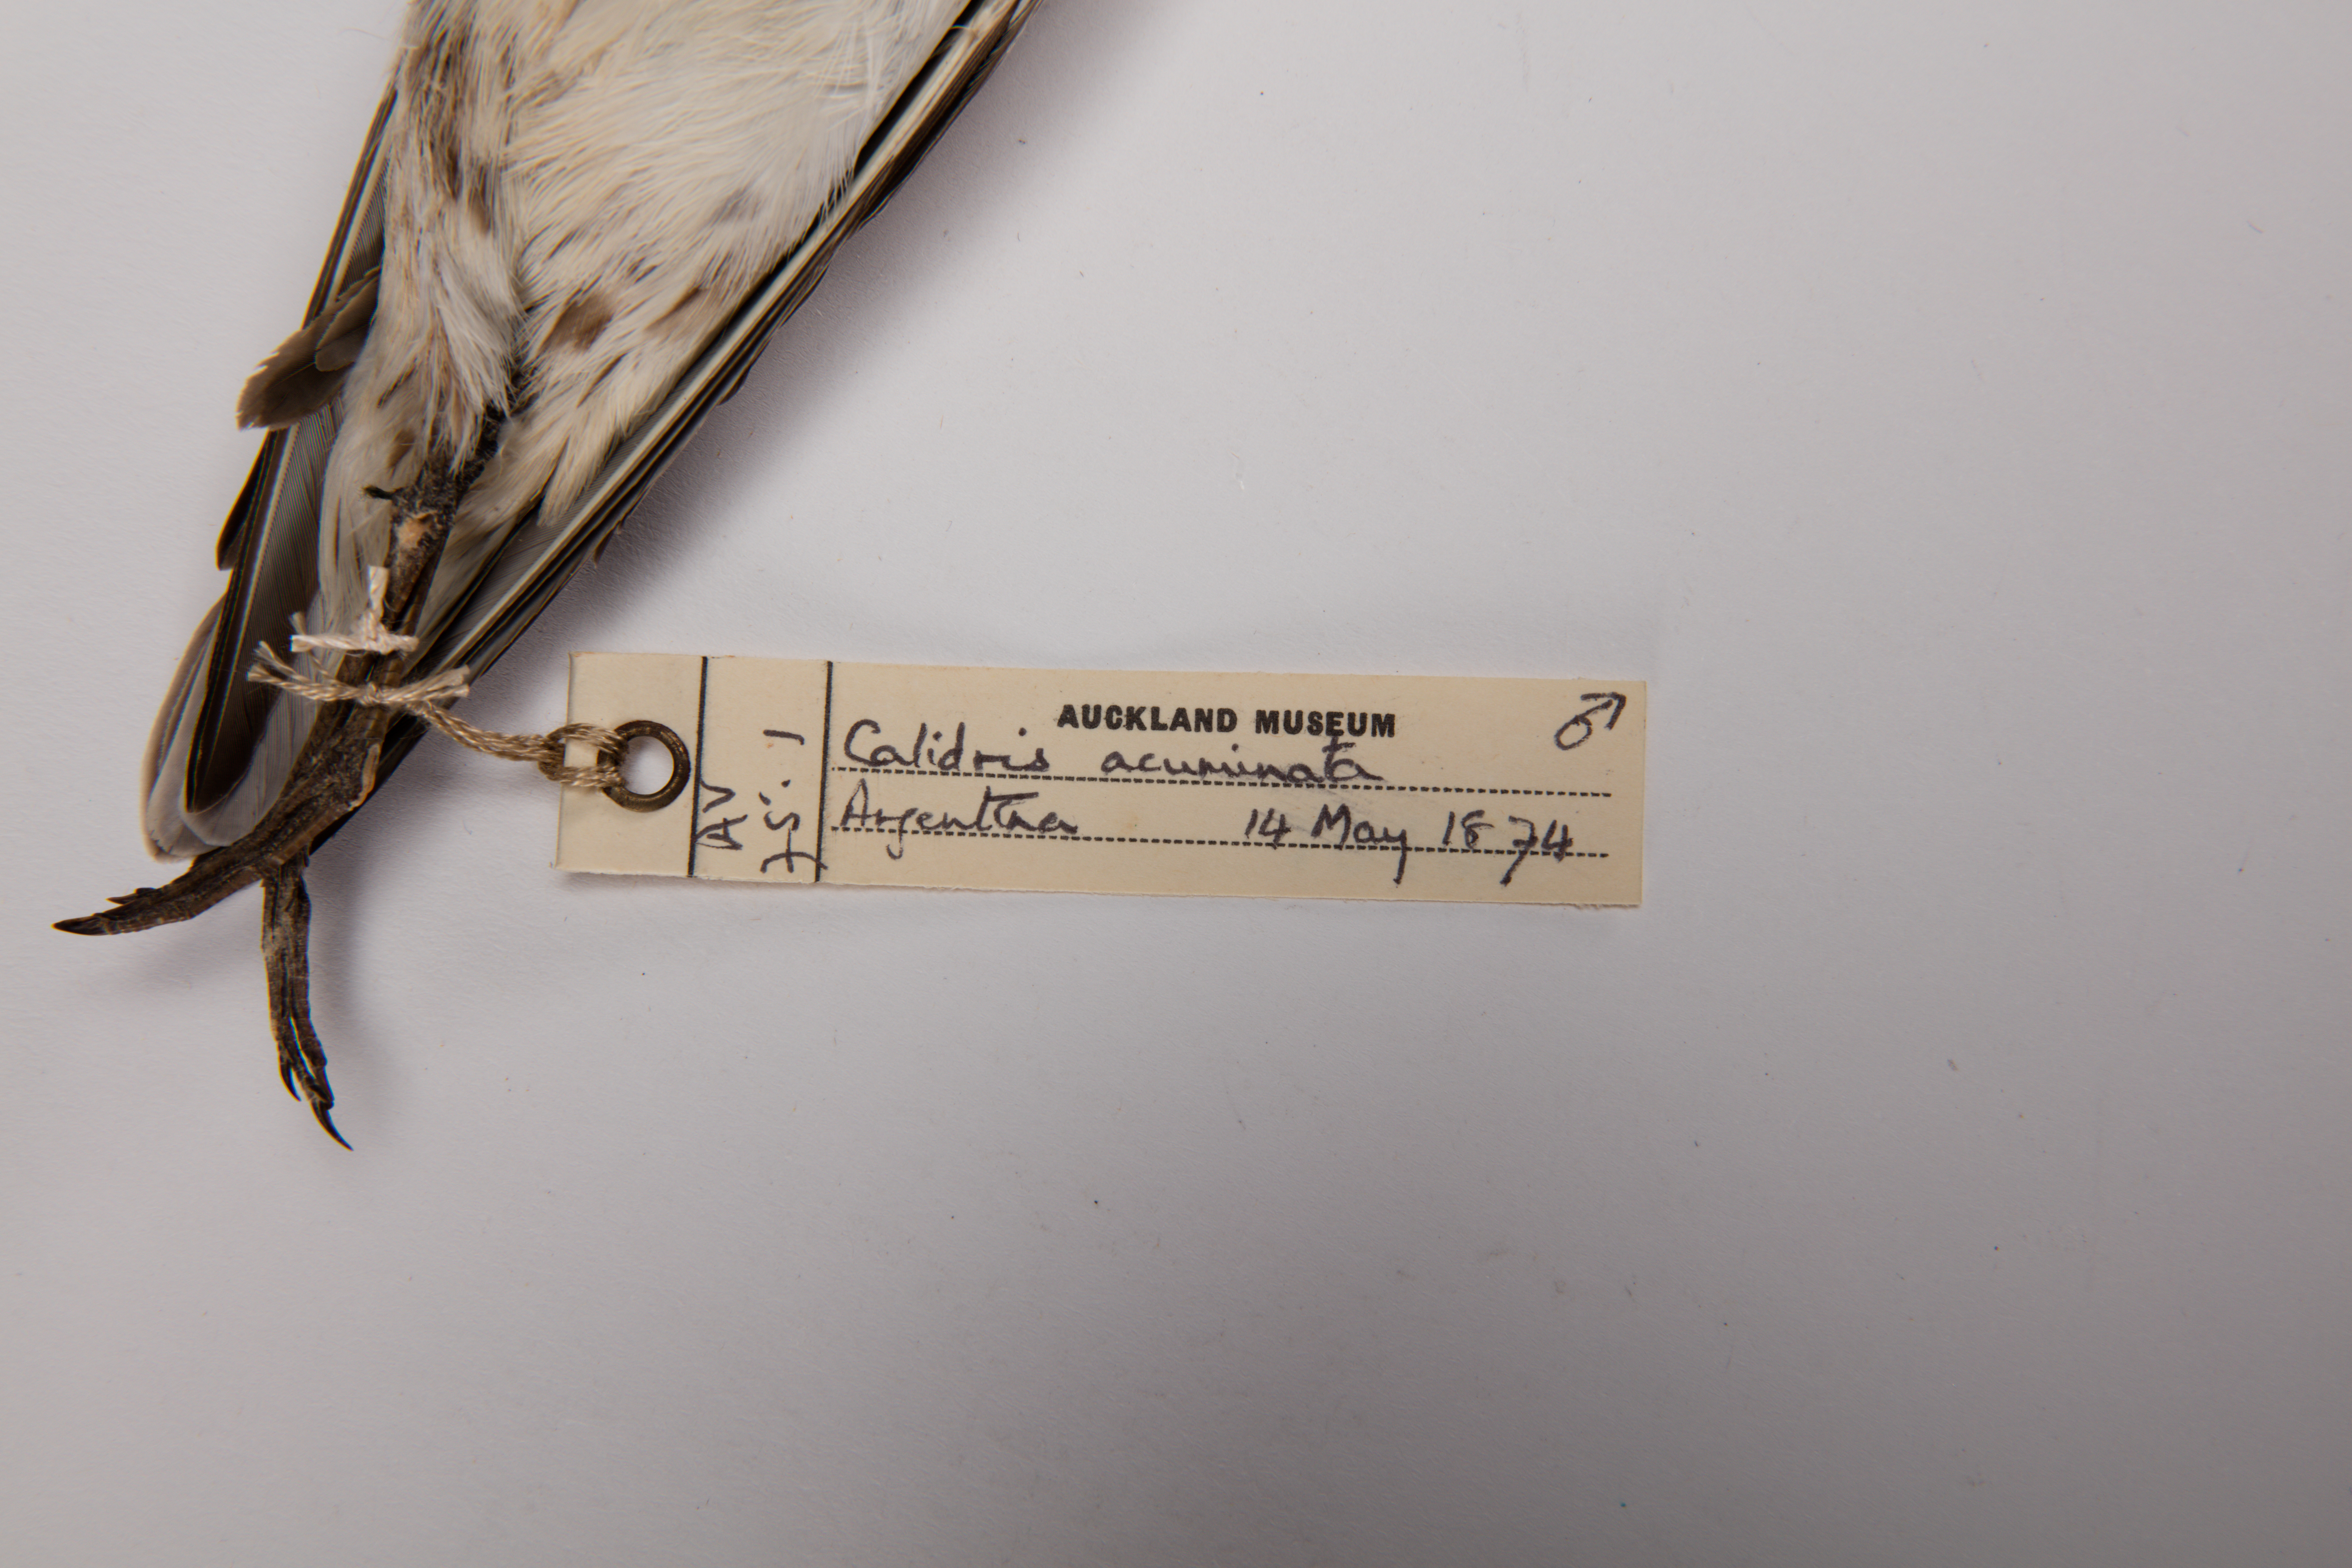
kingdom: Animalia
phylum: Chordata
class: Aves
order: Charadriiformes
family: Scolopacidae
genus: Calidris
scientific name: Calidris acuminata
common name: Sharp-tailed sandpiper
